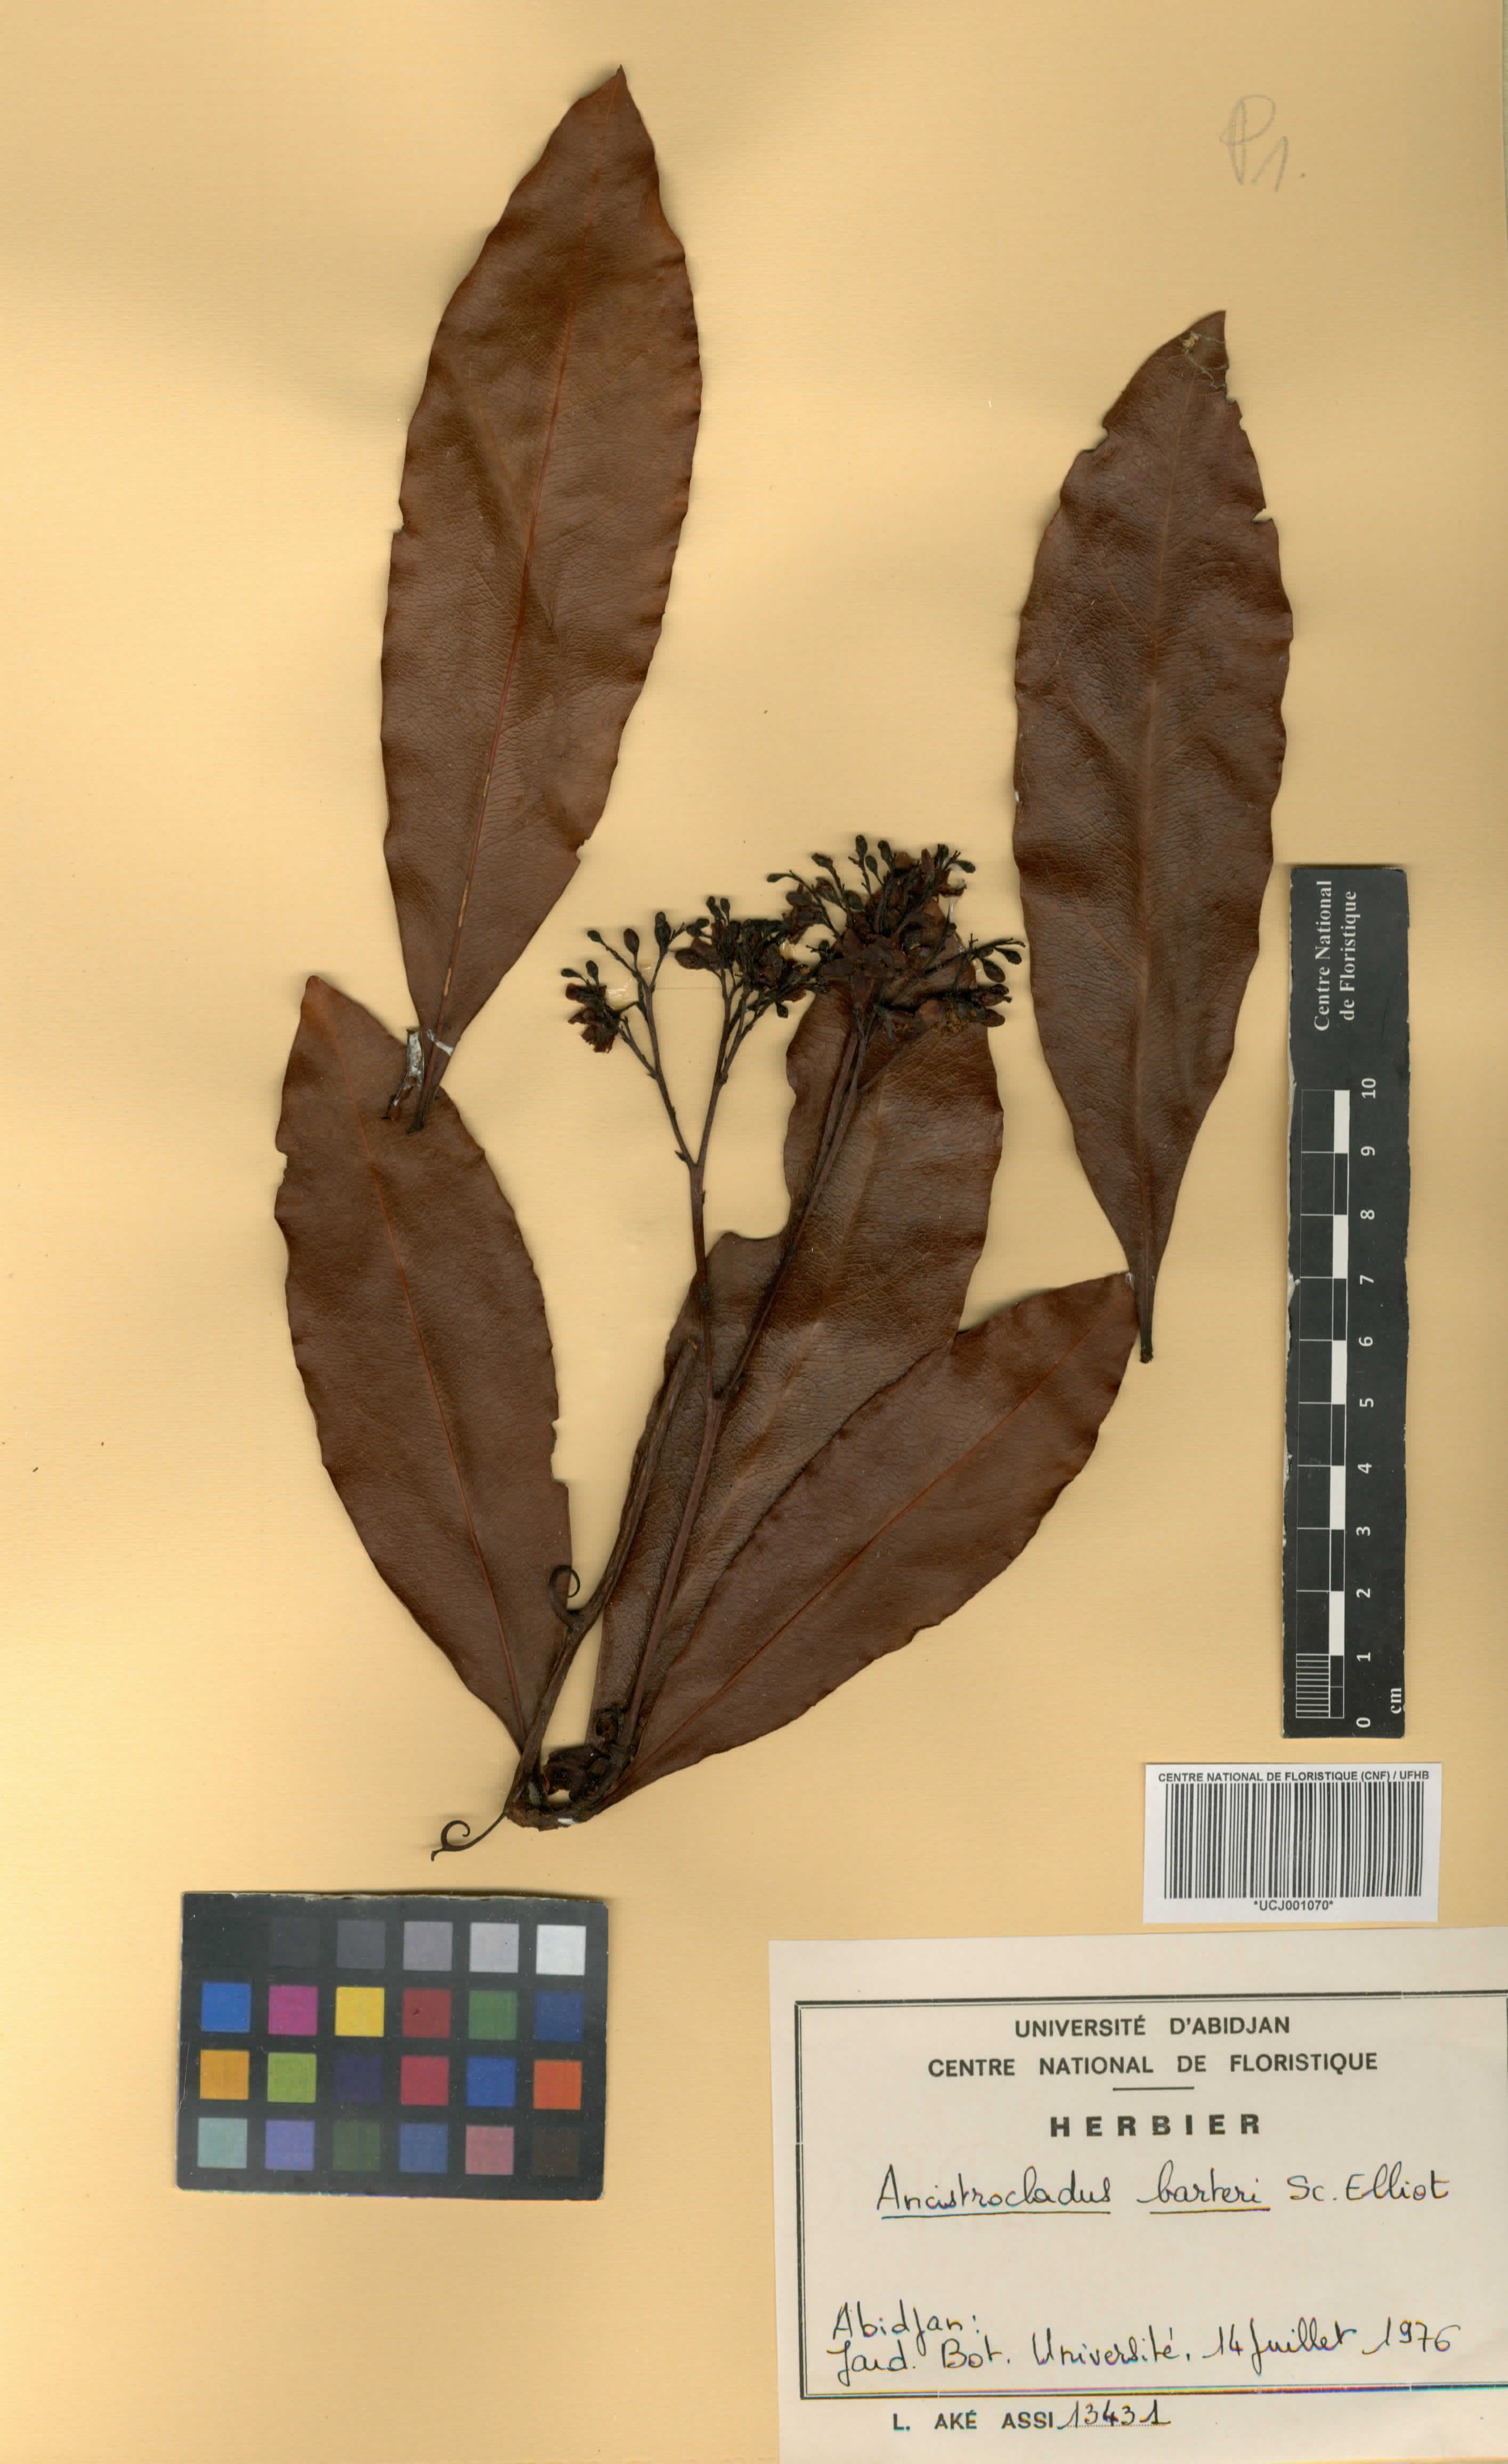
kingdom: Plantae
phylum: Tracheophyta
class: Magnoliopsida
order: Caryophyllales
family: Ancistrocladaceae
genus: Ancistrocladus
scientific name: Ancistrocladus barteri
